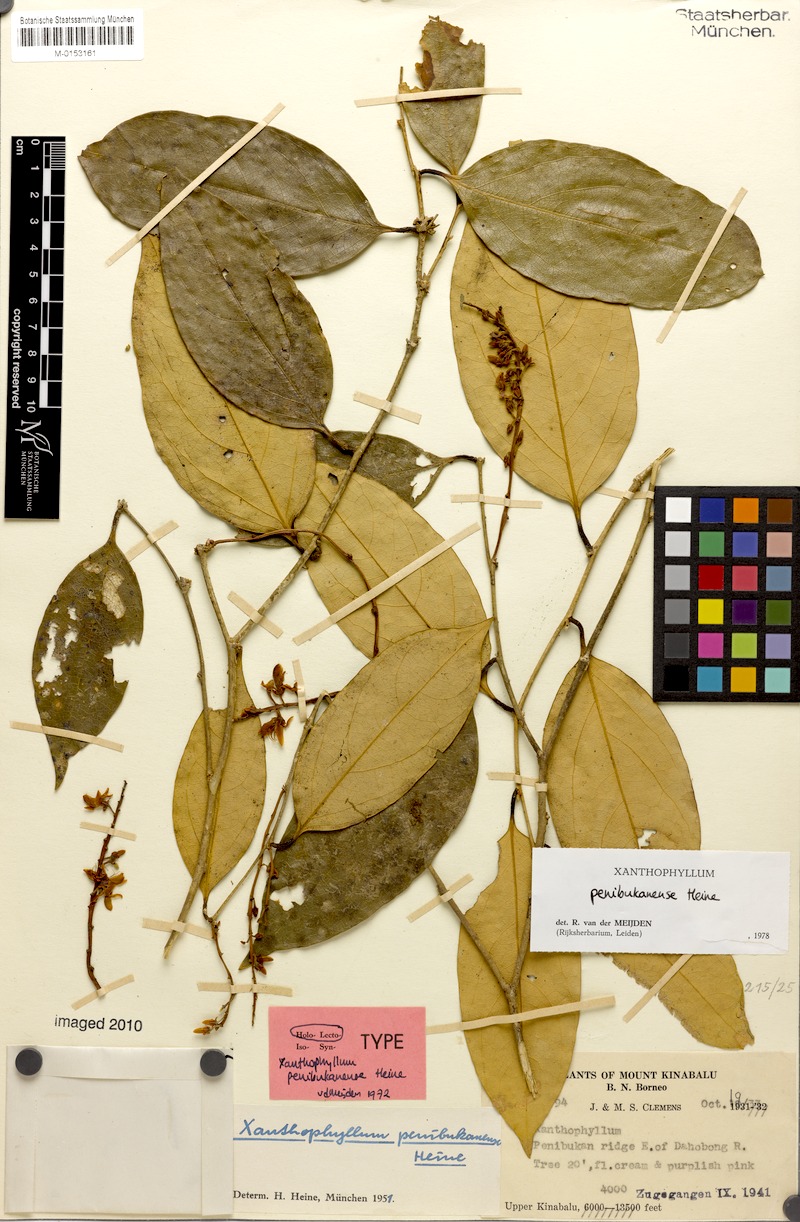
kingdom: Plantae
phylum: Tracheophyta
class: Magnoliopsida
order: Fabales
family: Polygalaceae
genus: Xanthophyllum
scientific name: Xanthophyllum penibukanense
